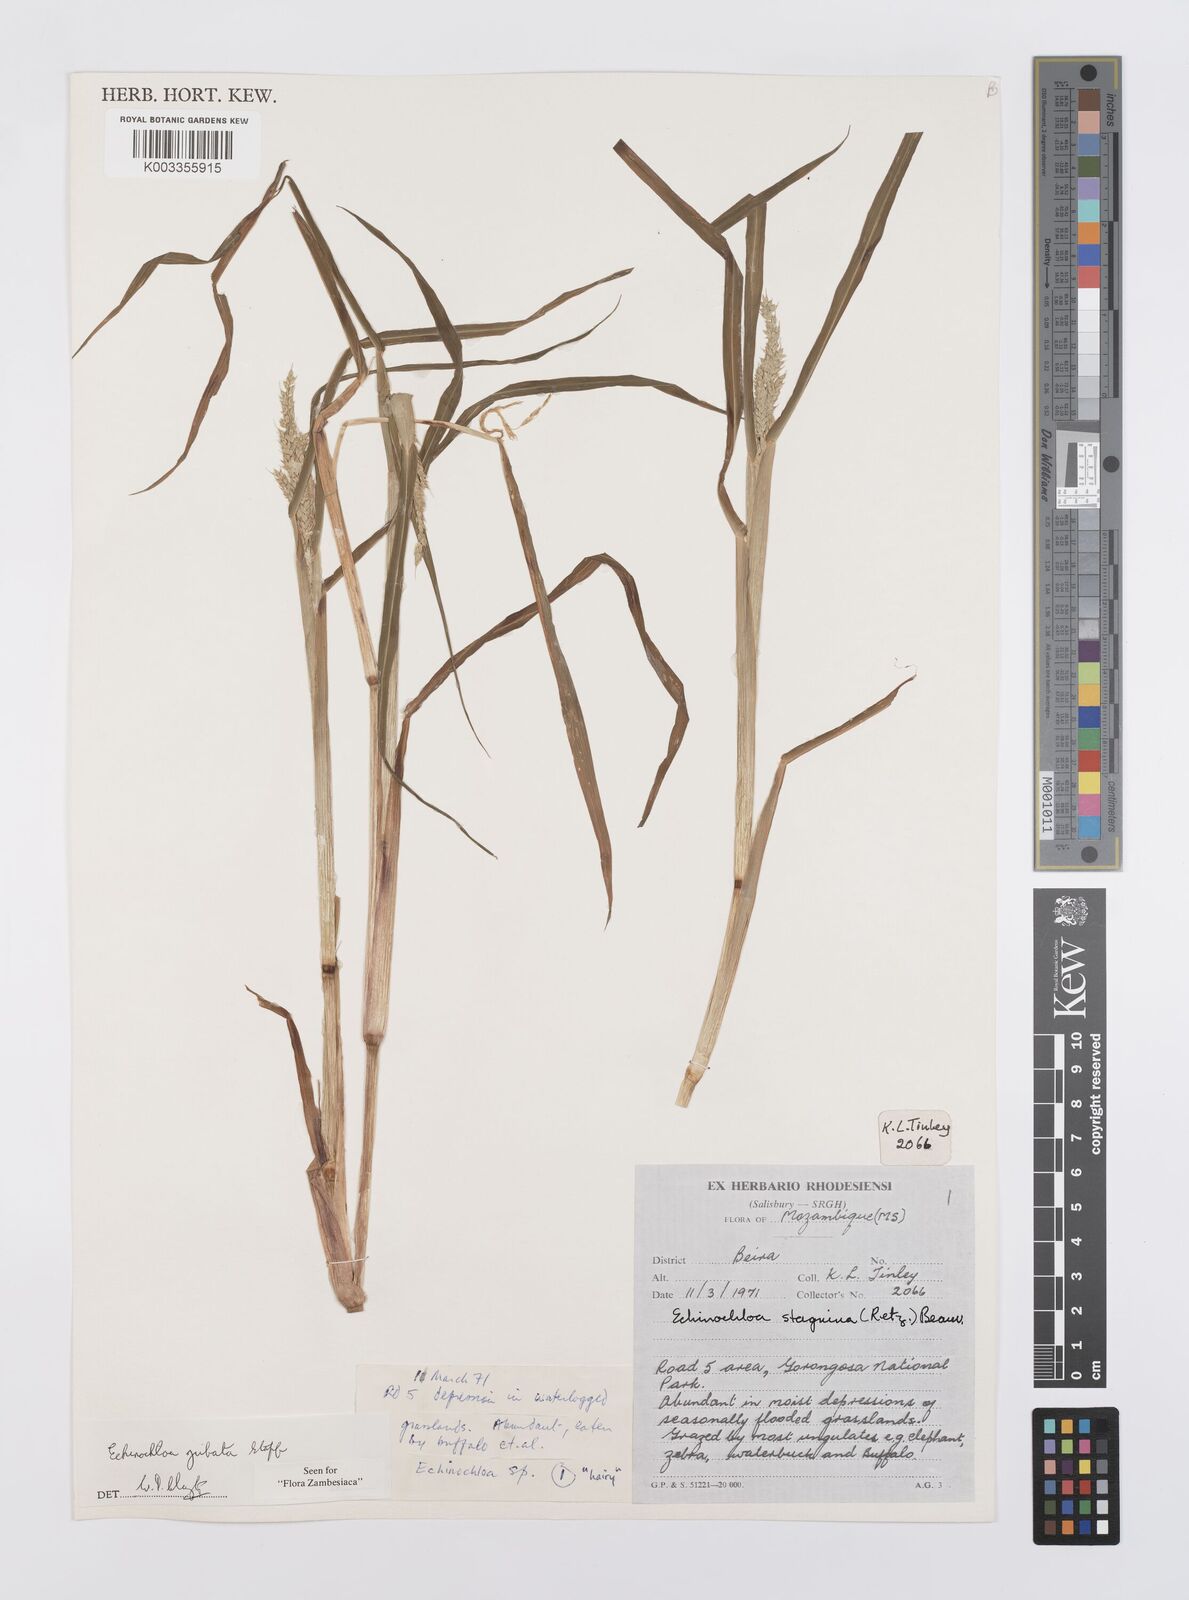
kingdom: Plantae
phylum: Tracheophyta
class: Liliopsida
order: Poales
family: Poaceae
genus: Echinochloa
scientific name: Echinochloa jubata
